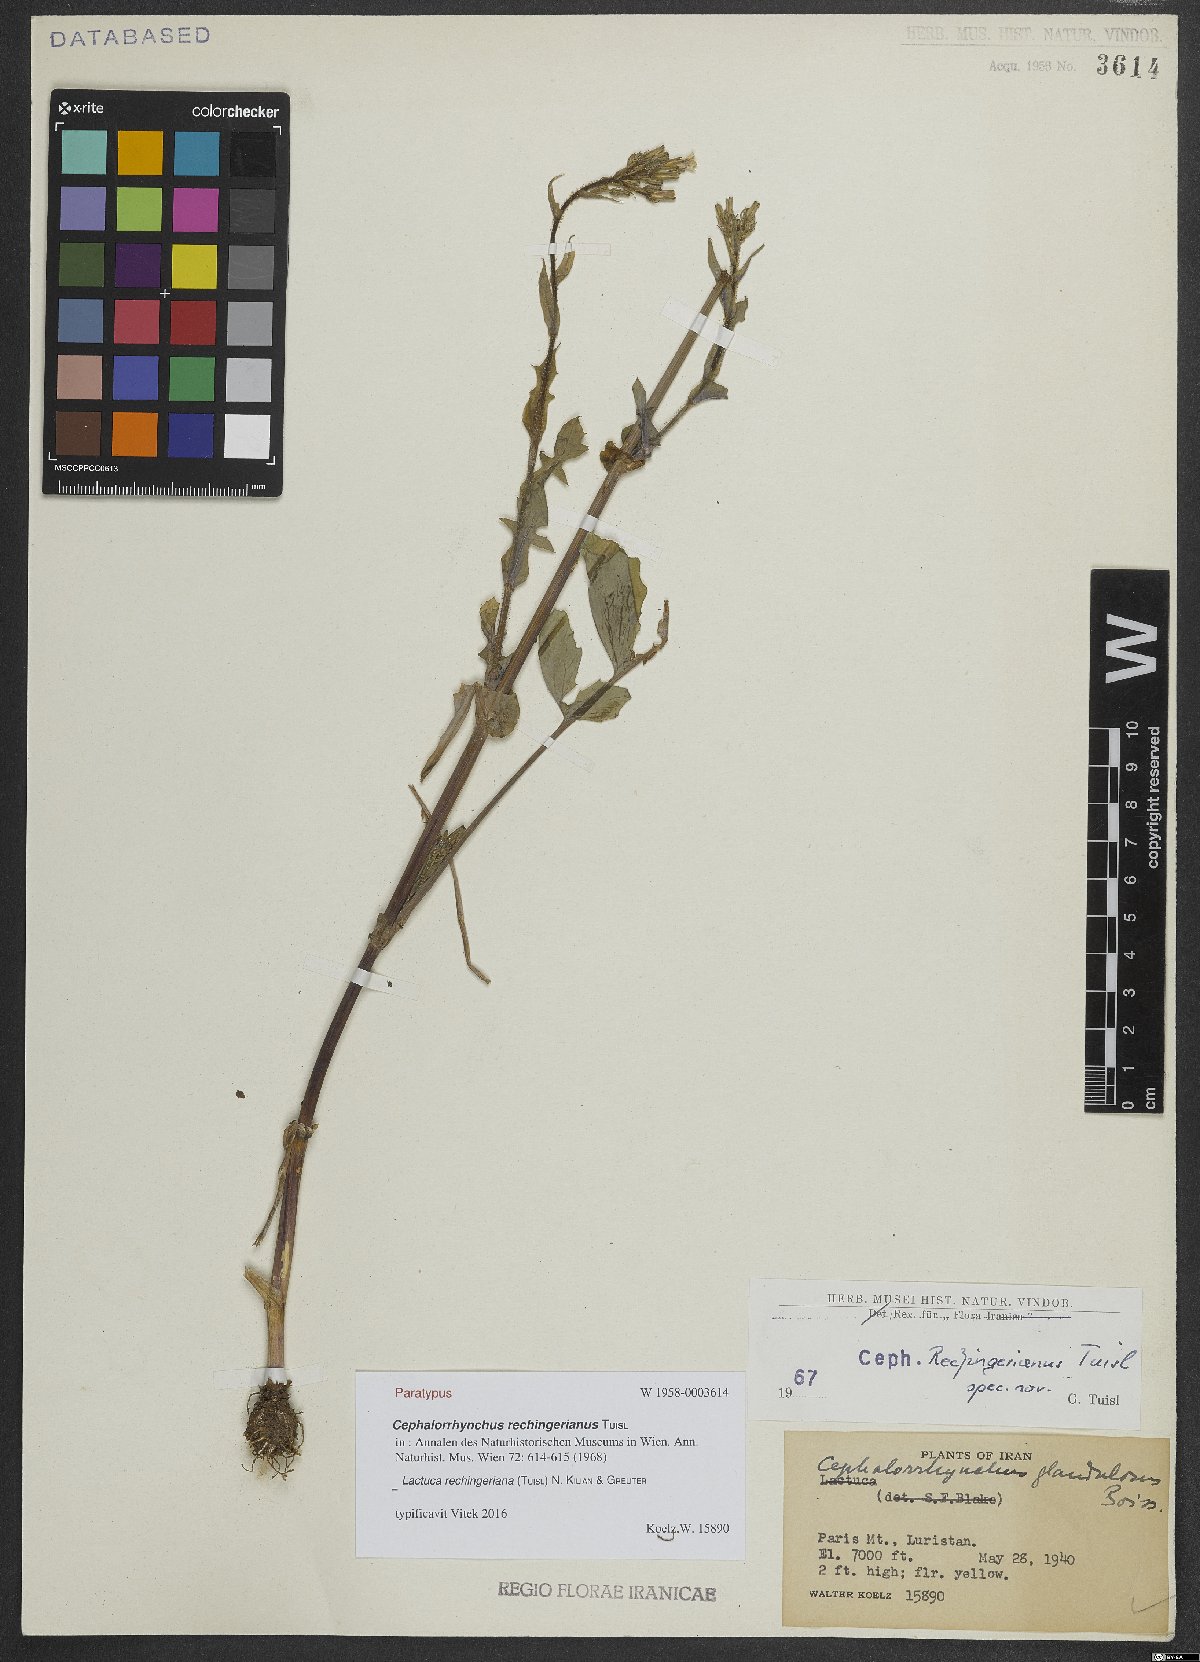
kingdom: Plantae
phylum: Tracheophyta
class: Magnoliopsida
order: Asterales
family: Asteraceae
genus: Cicerbita
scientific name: Cicerbita rechingeriana
